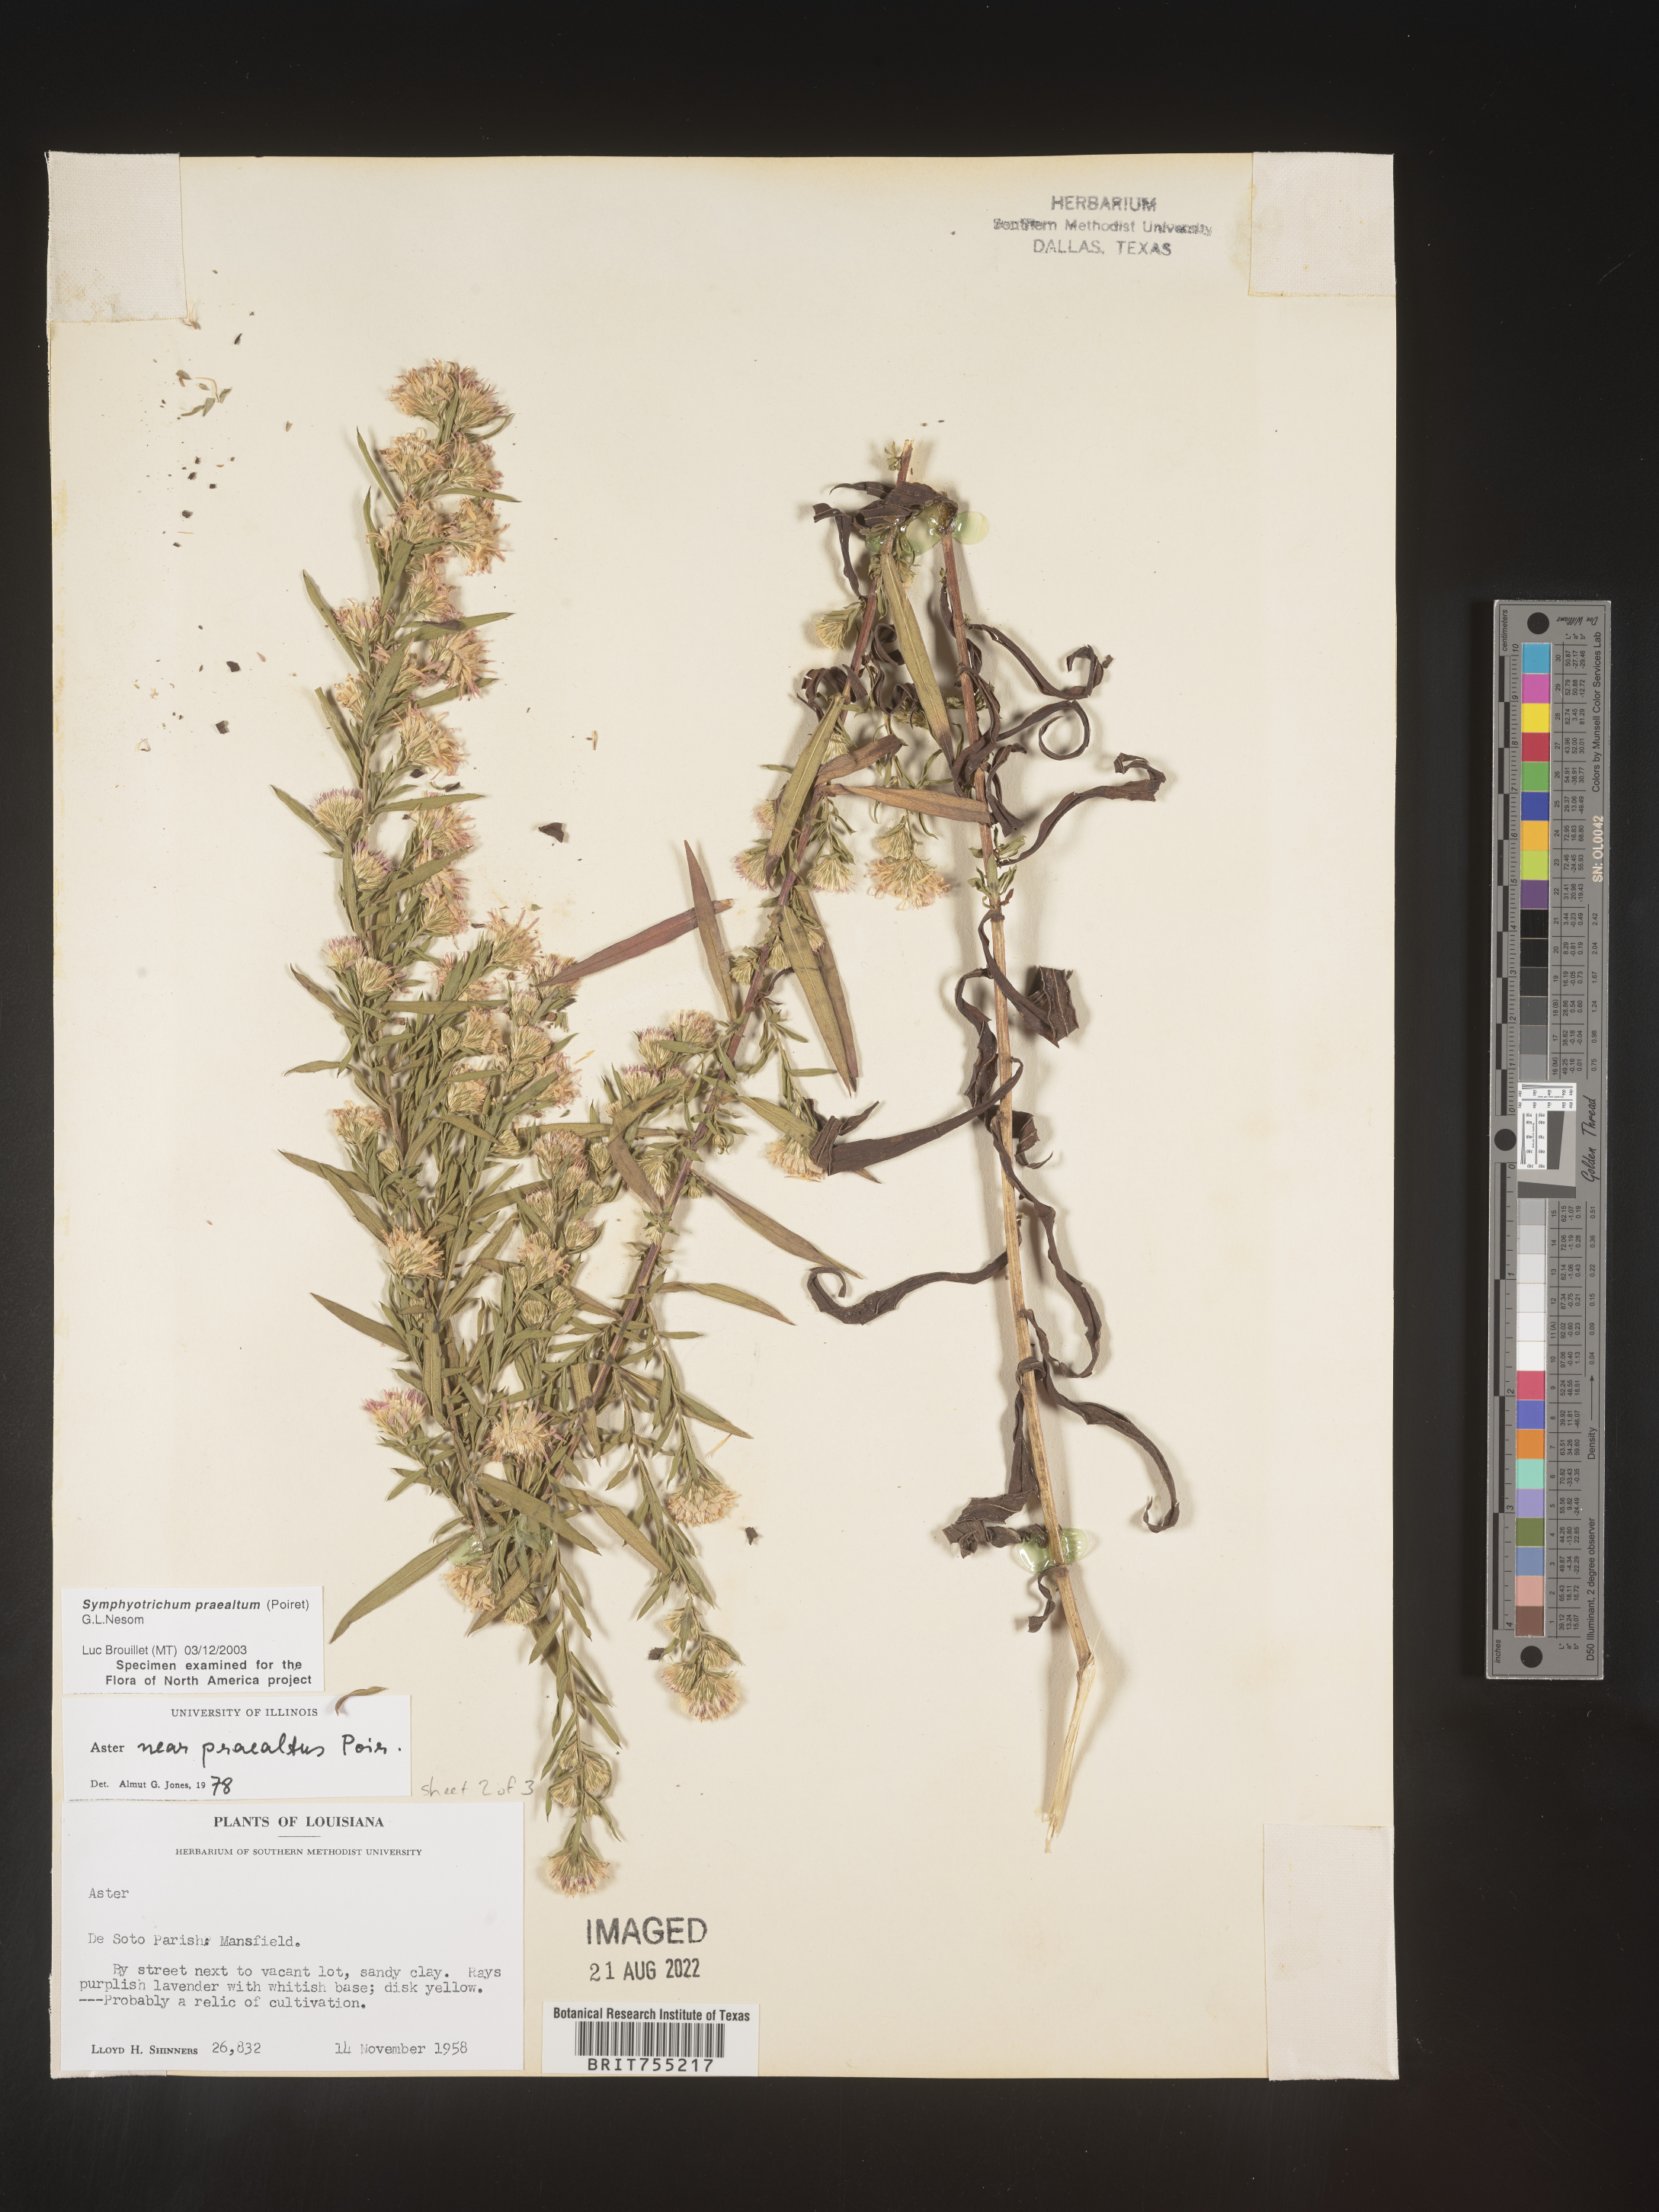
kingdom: Plantae
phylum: Tracheophyta
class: Magnoliopsida
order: Asterales
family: Asteraceae
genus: Symphyotrichum
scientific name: Symphyotrichum praealtum
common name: Willow aster
